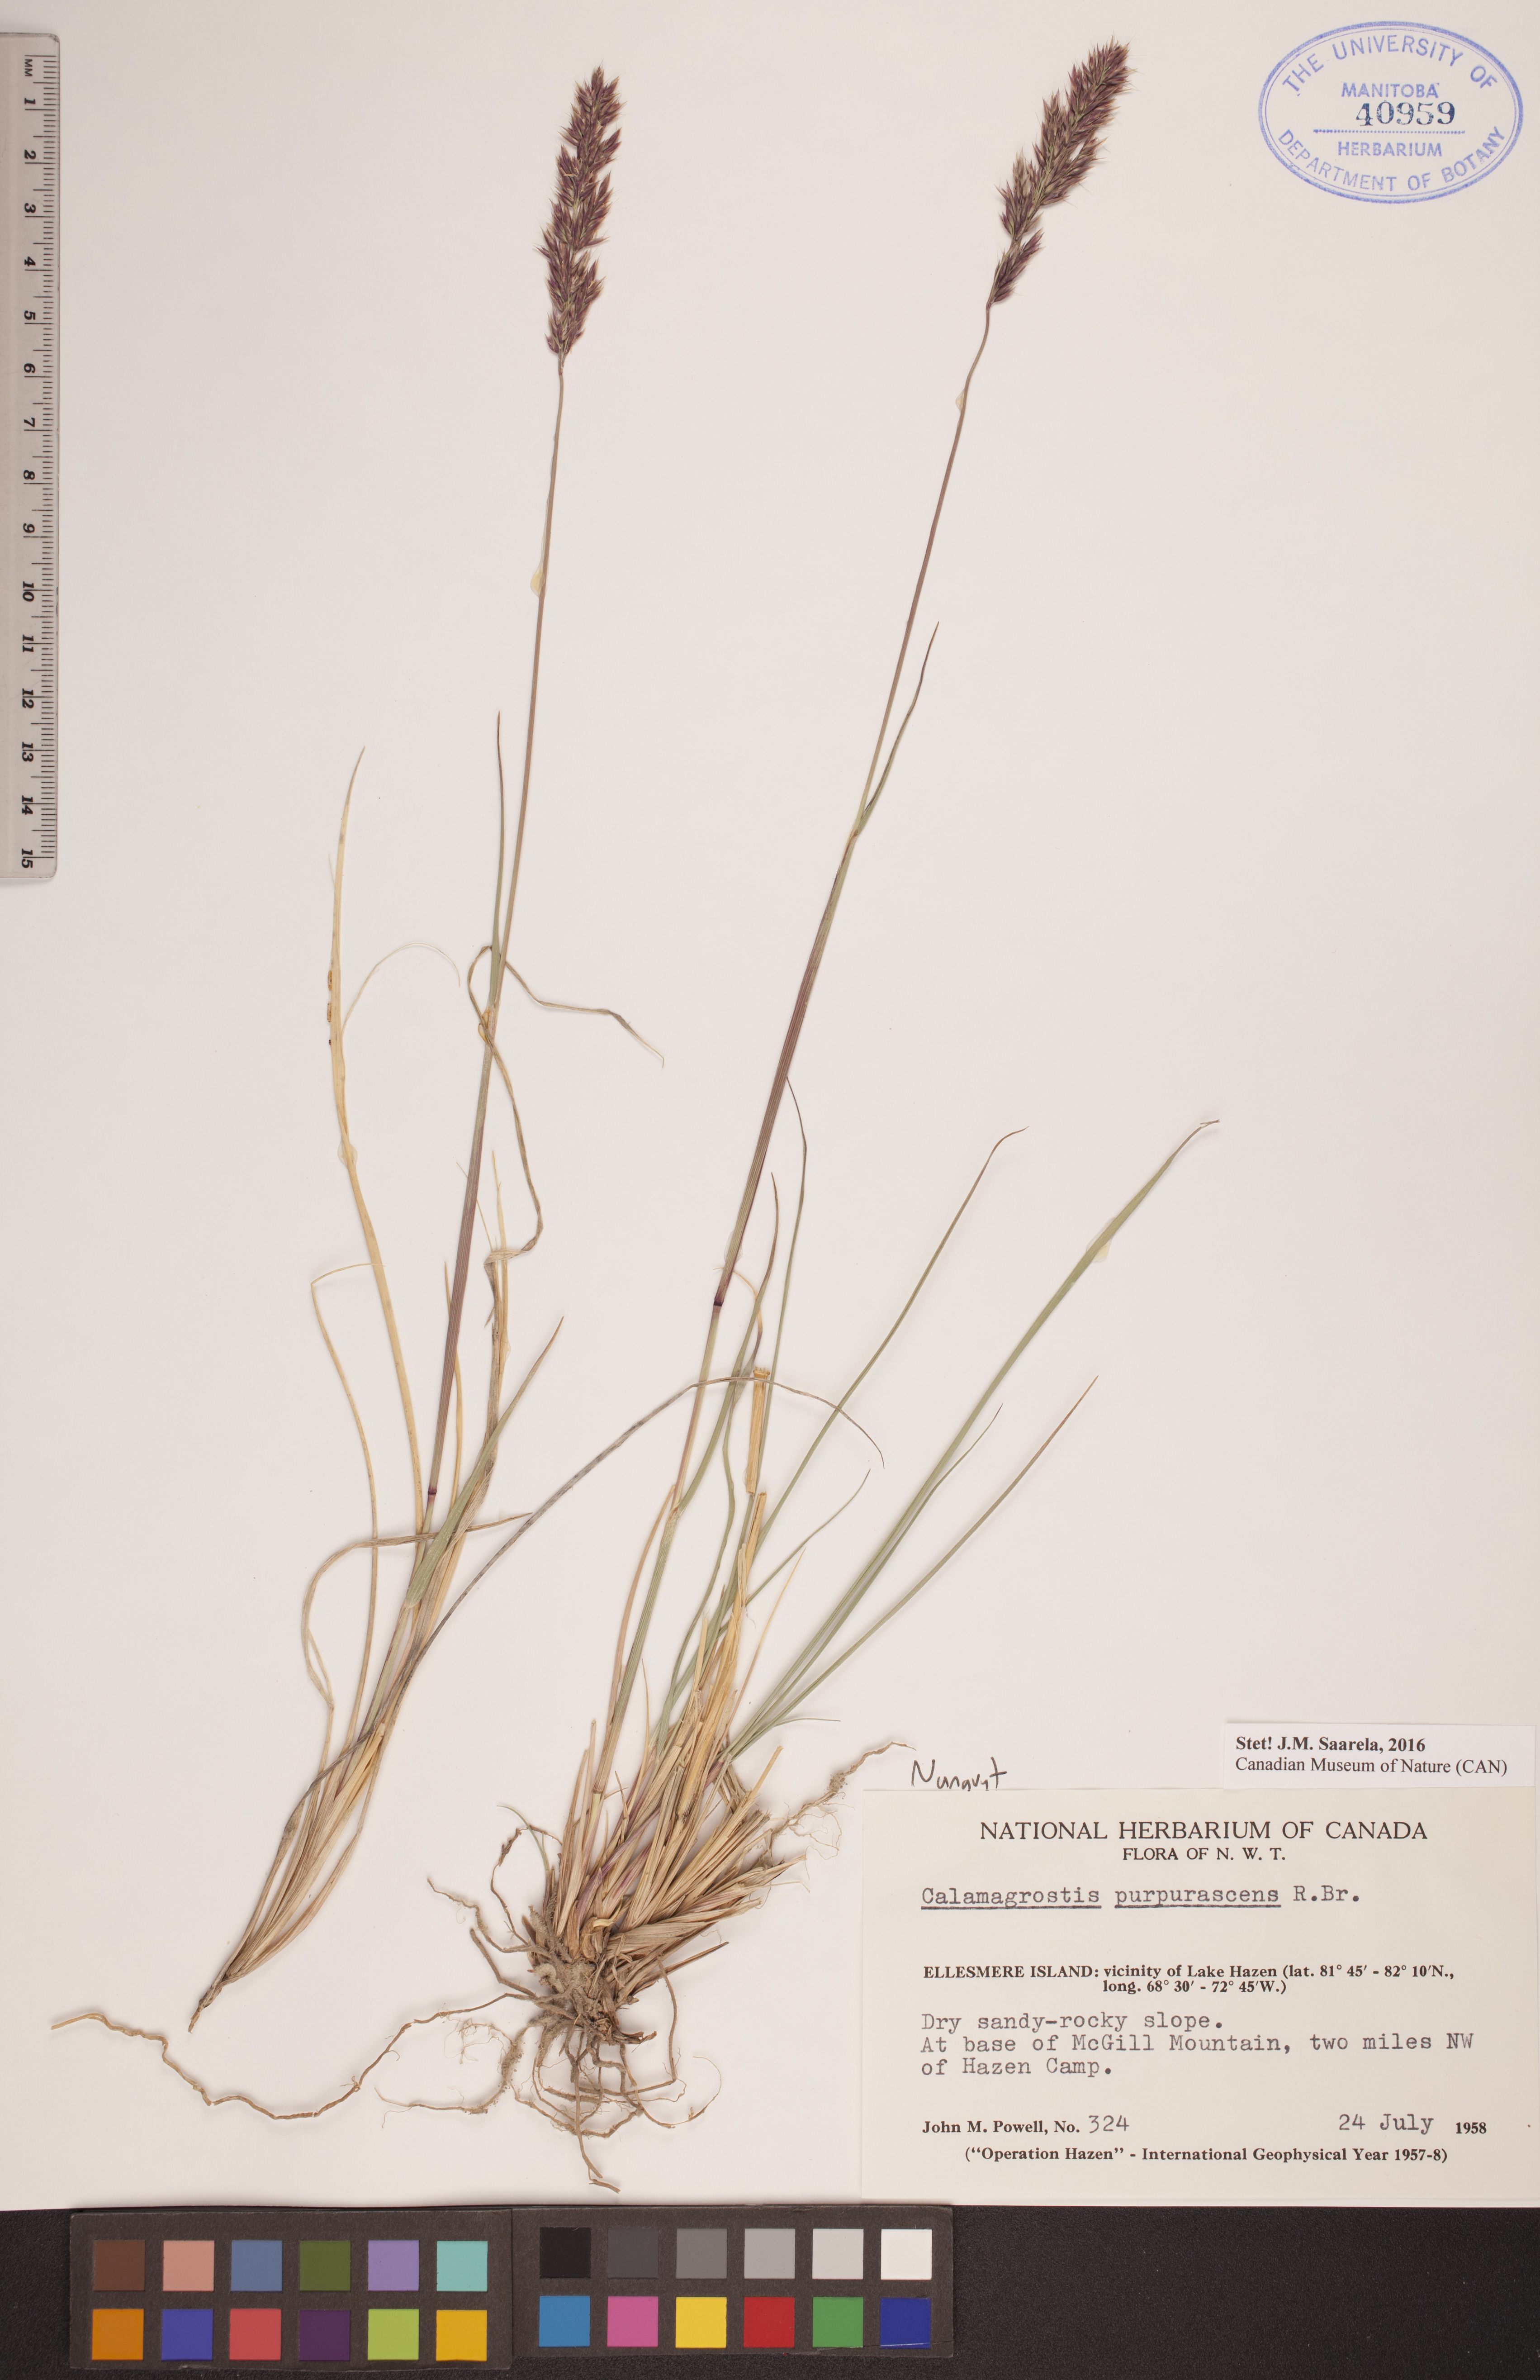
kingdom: Plantae
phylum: Tracheophyta
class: Liliopsida
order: Poales
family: Poaceae
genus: Calamagrostis
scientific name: Calamagrostis purpurascens
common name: Purple reedgrass
